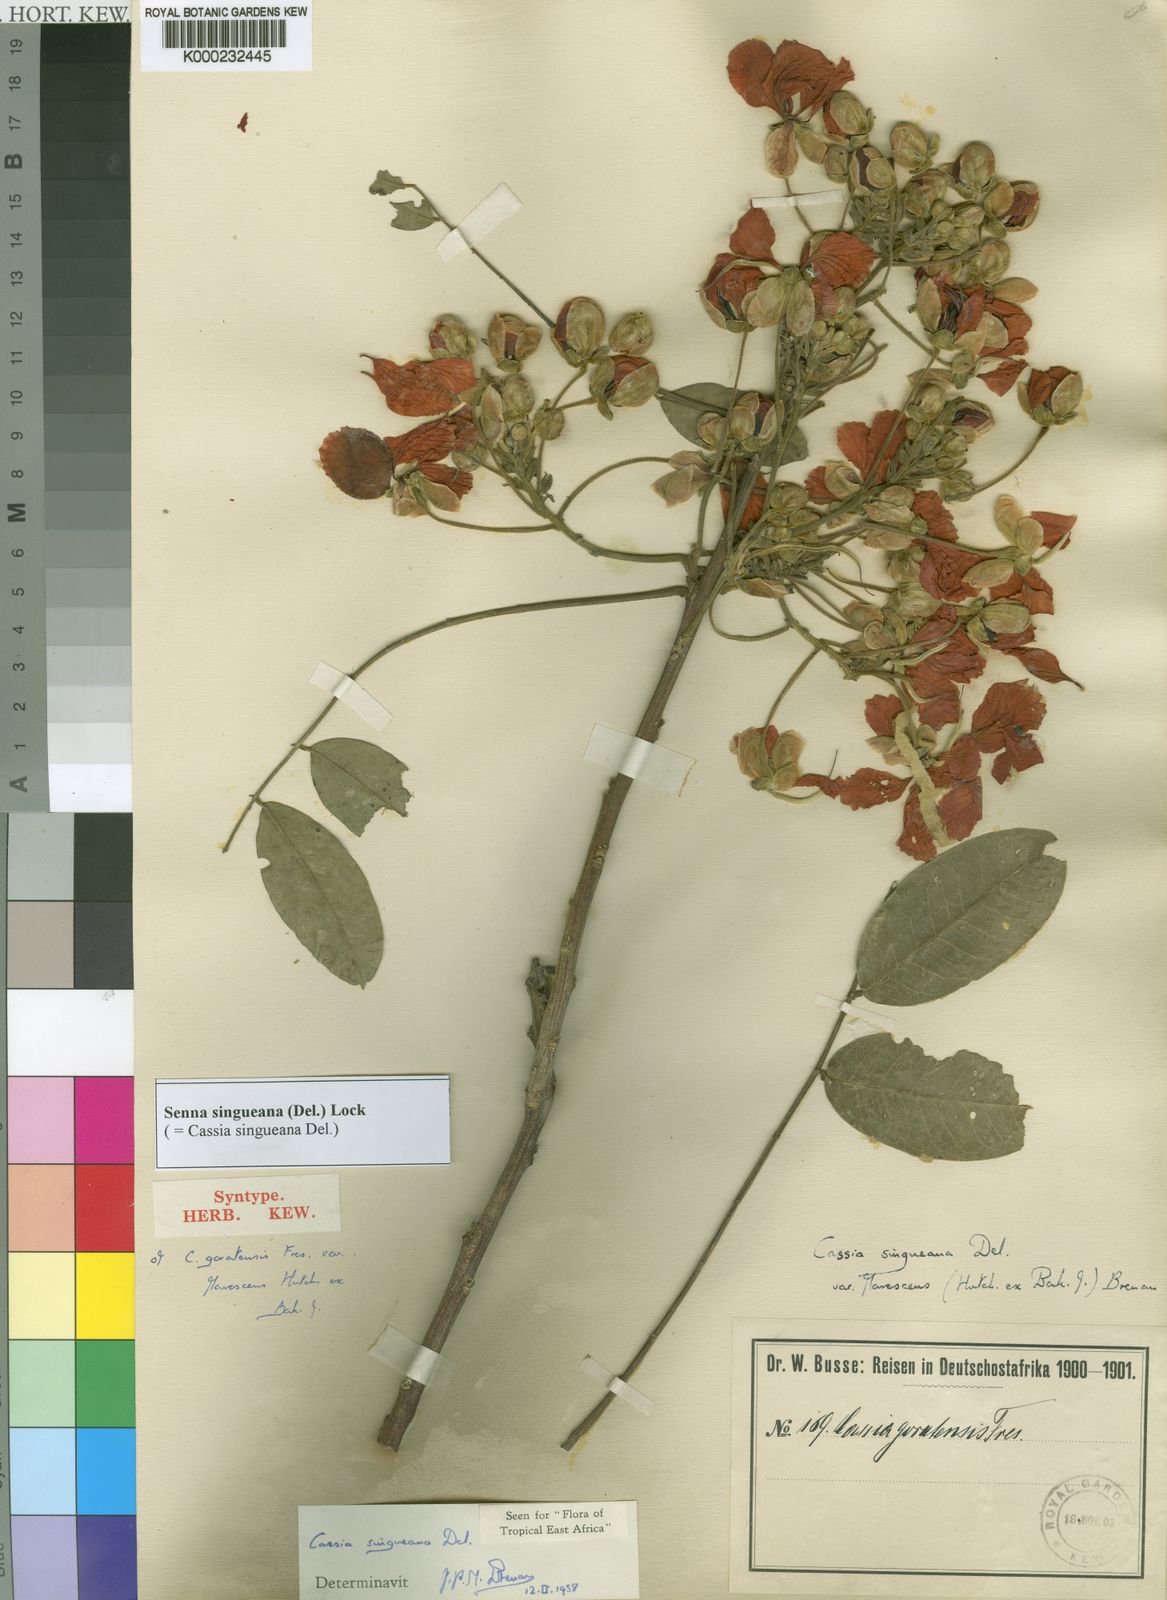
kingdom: Plantae
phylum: Tracheophyta
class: Magnoliopsida
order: Fabales
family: Fabaceae
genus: Senna
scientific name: Senna singueana
